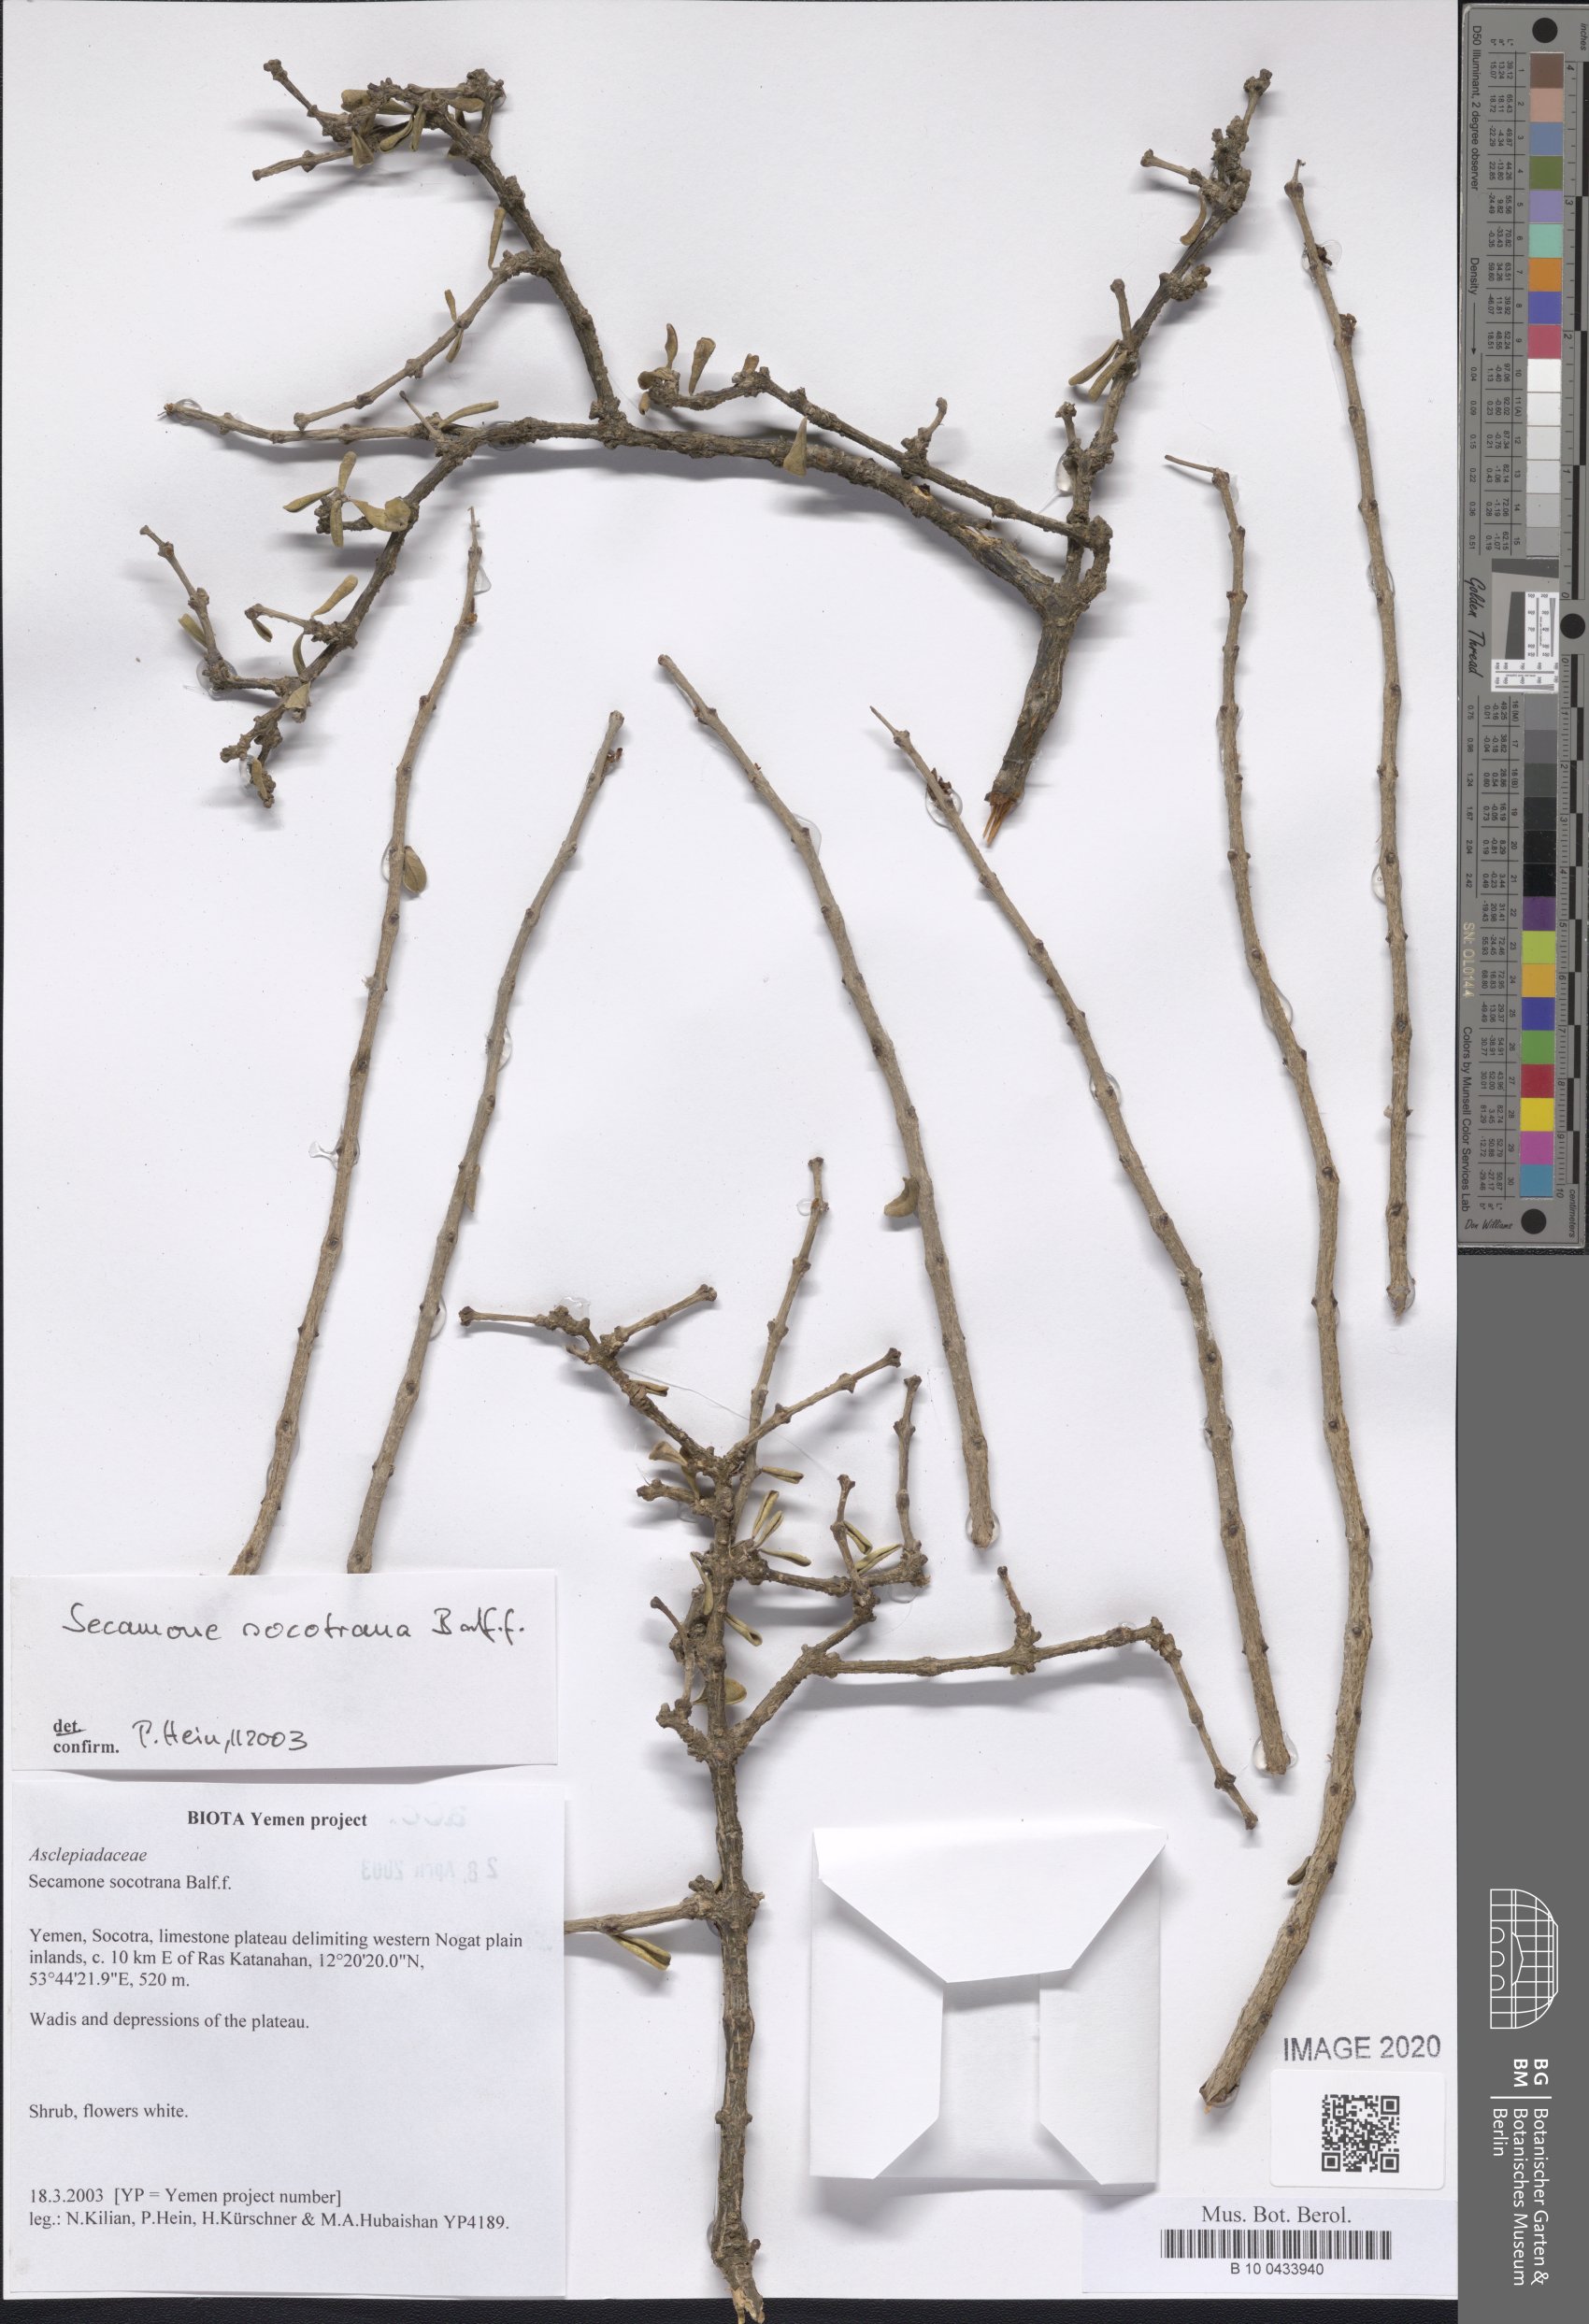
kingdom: Plantae
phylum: Tracheophyta
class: Magnoliopsida
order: Gentianales
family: Apocynaceae
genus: Secamone
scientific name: Secamone socotrana
